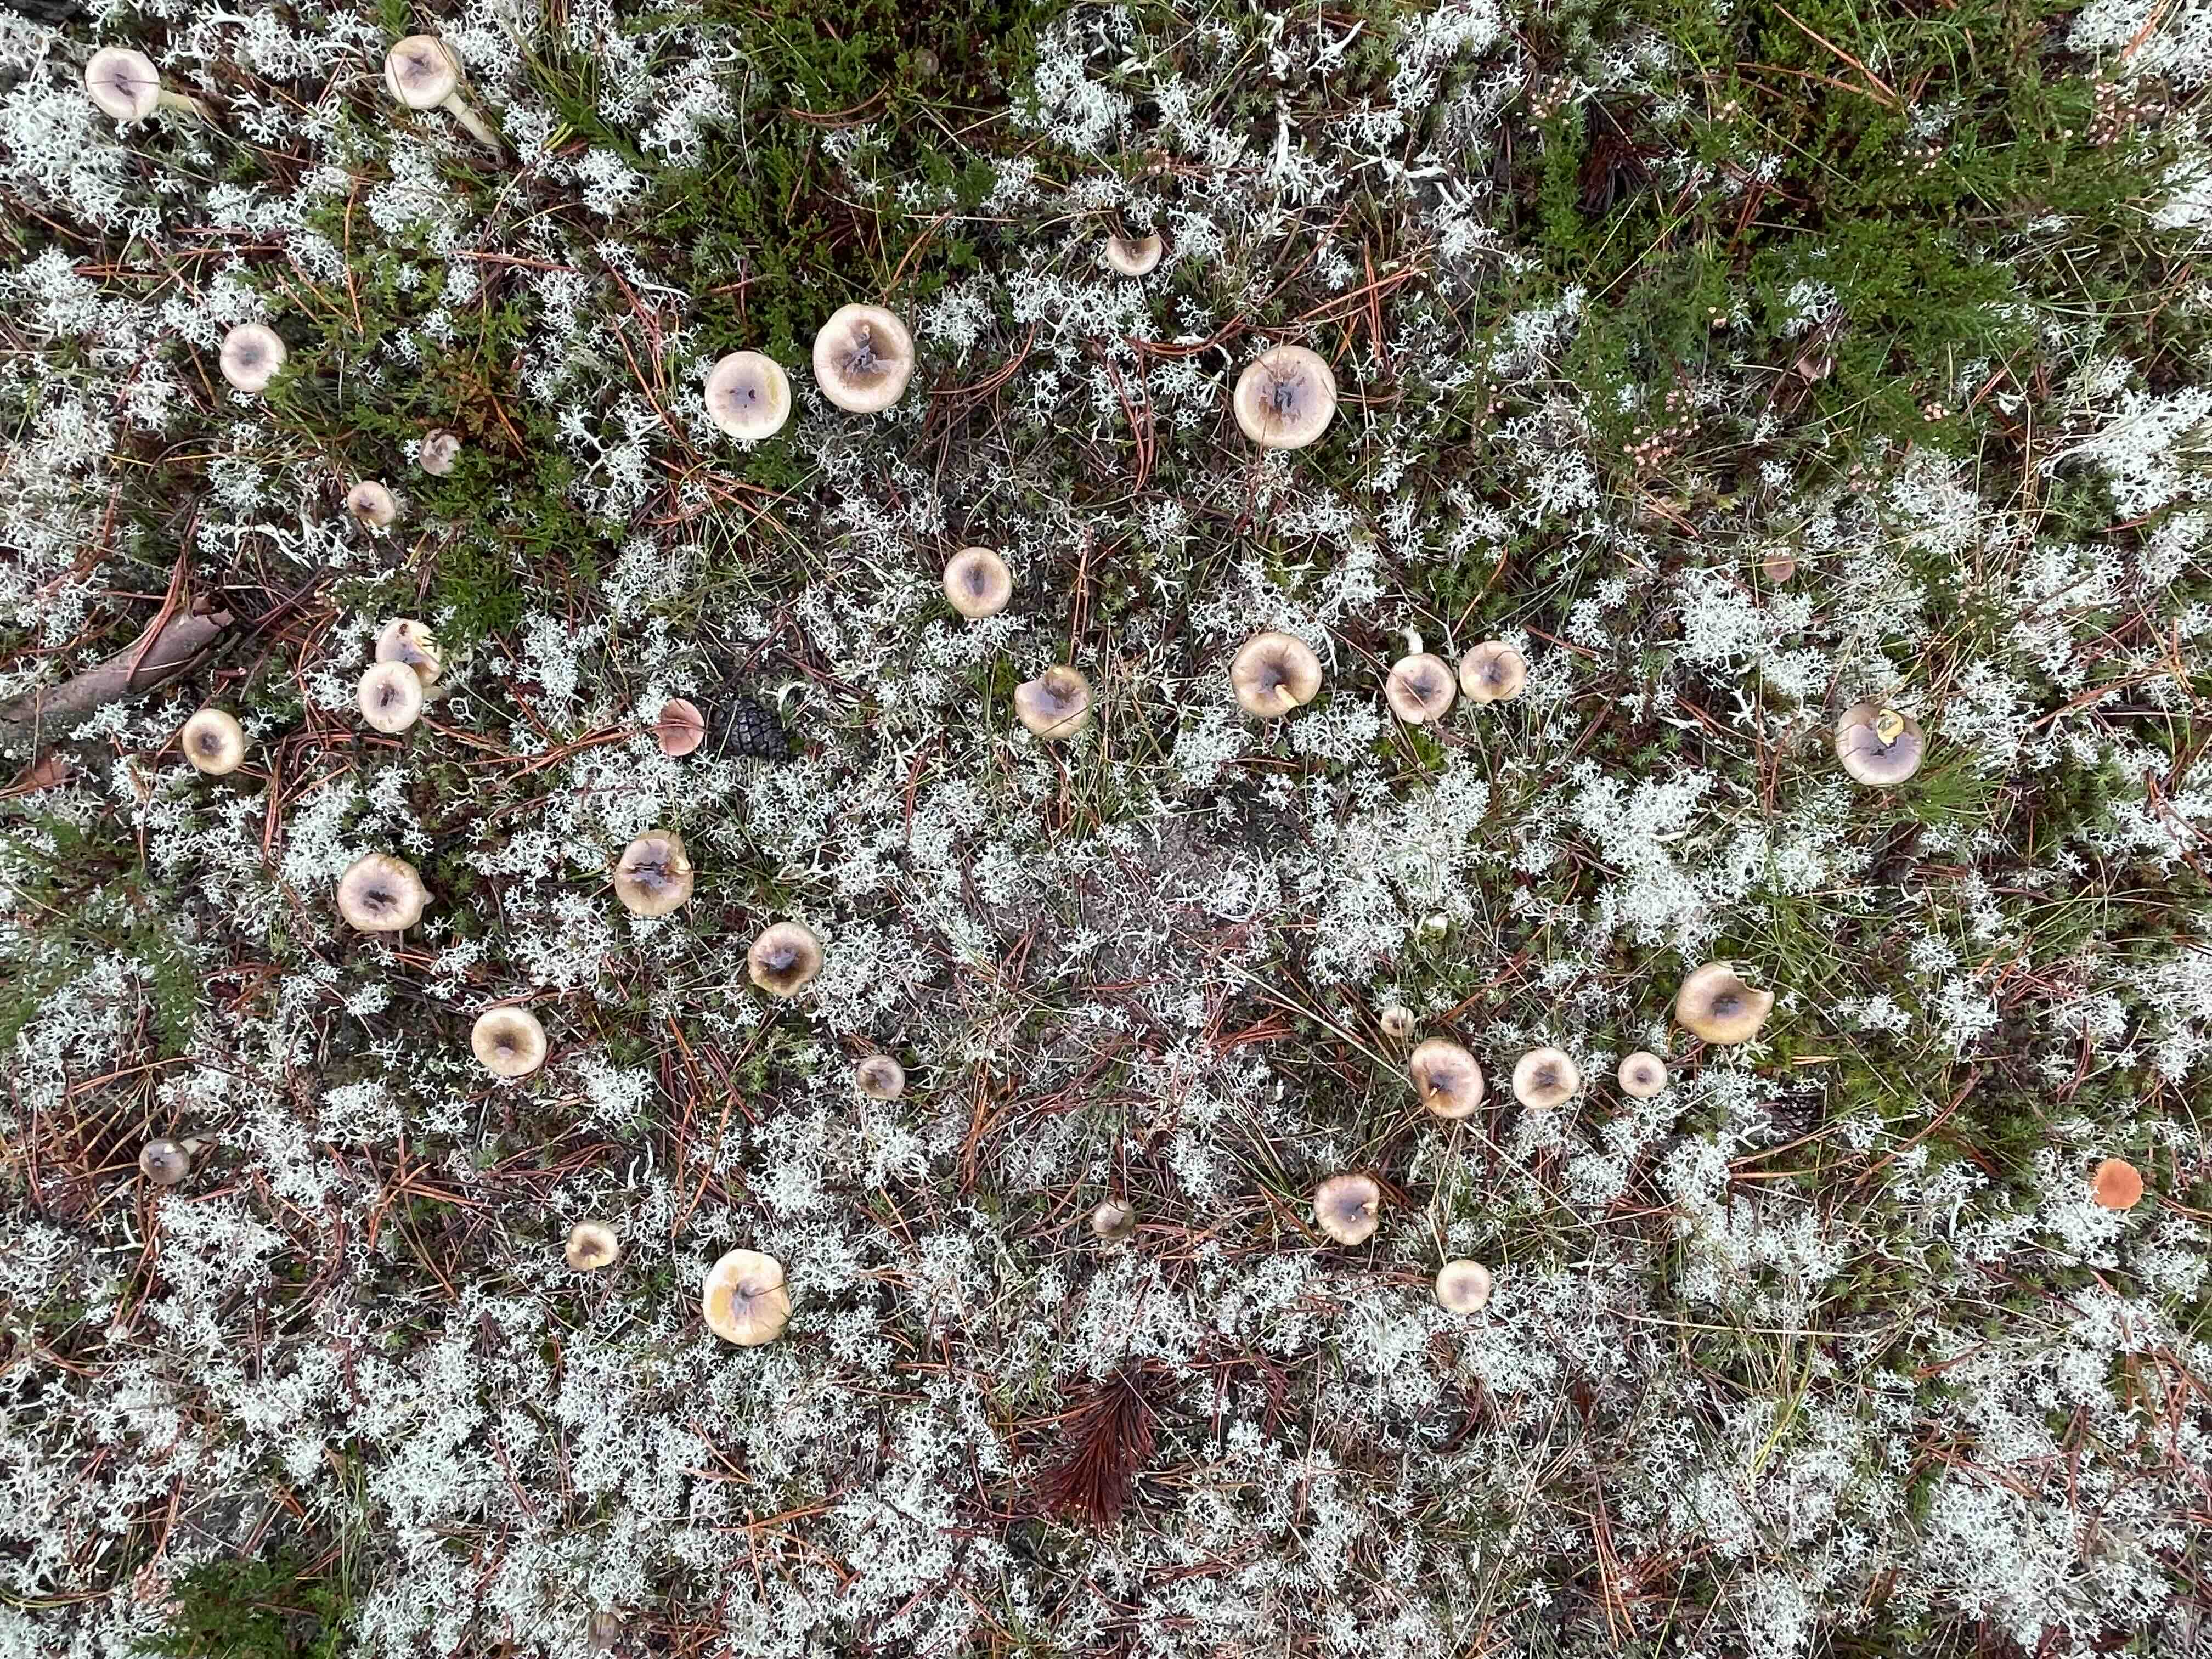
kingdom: Fungi
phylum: Basidiomycota
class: Agaricomycetes
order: Agaricales
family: Hygrophoraceae
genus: Hygrophorus
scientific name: Hygrophorus hypothejus
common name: frost-sneglehat
